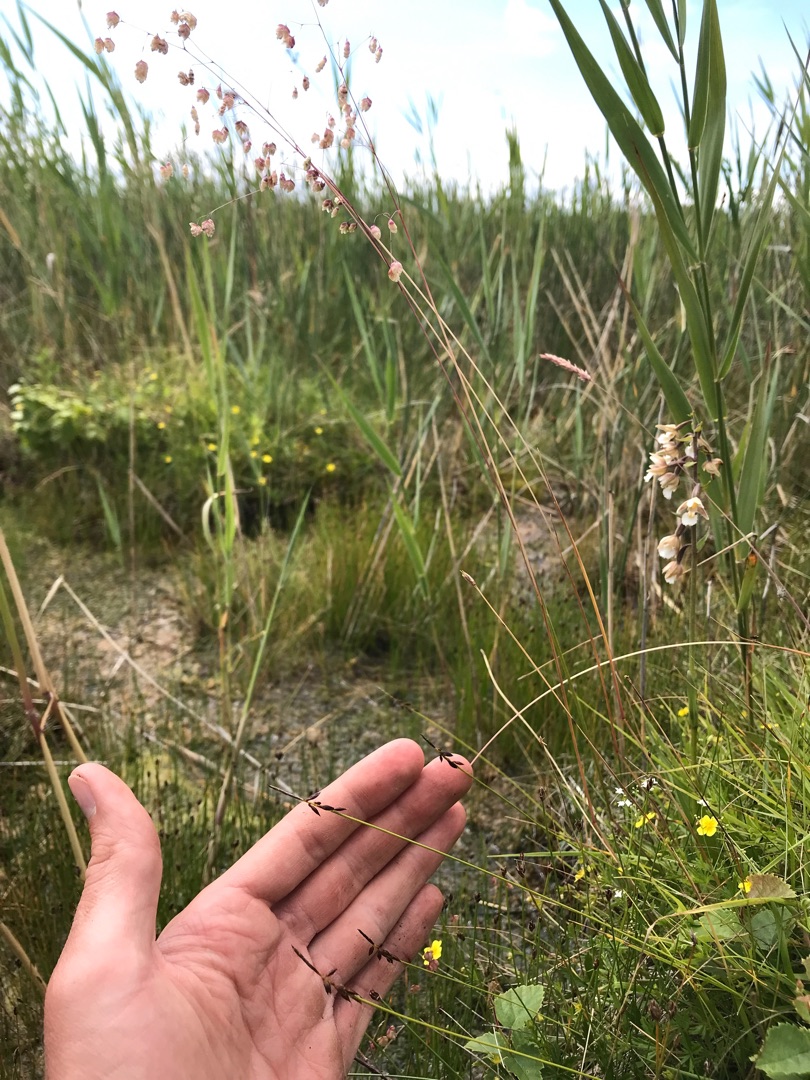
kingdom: Plantae
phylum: Tracheophyta
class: Liliopsida
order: Poales
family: Cyperaceae
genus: Carex
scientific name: Carex pulicaris
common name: Loppe-star
